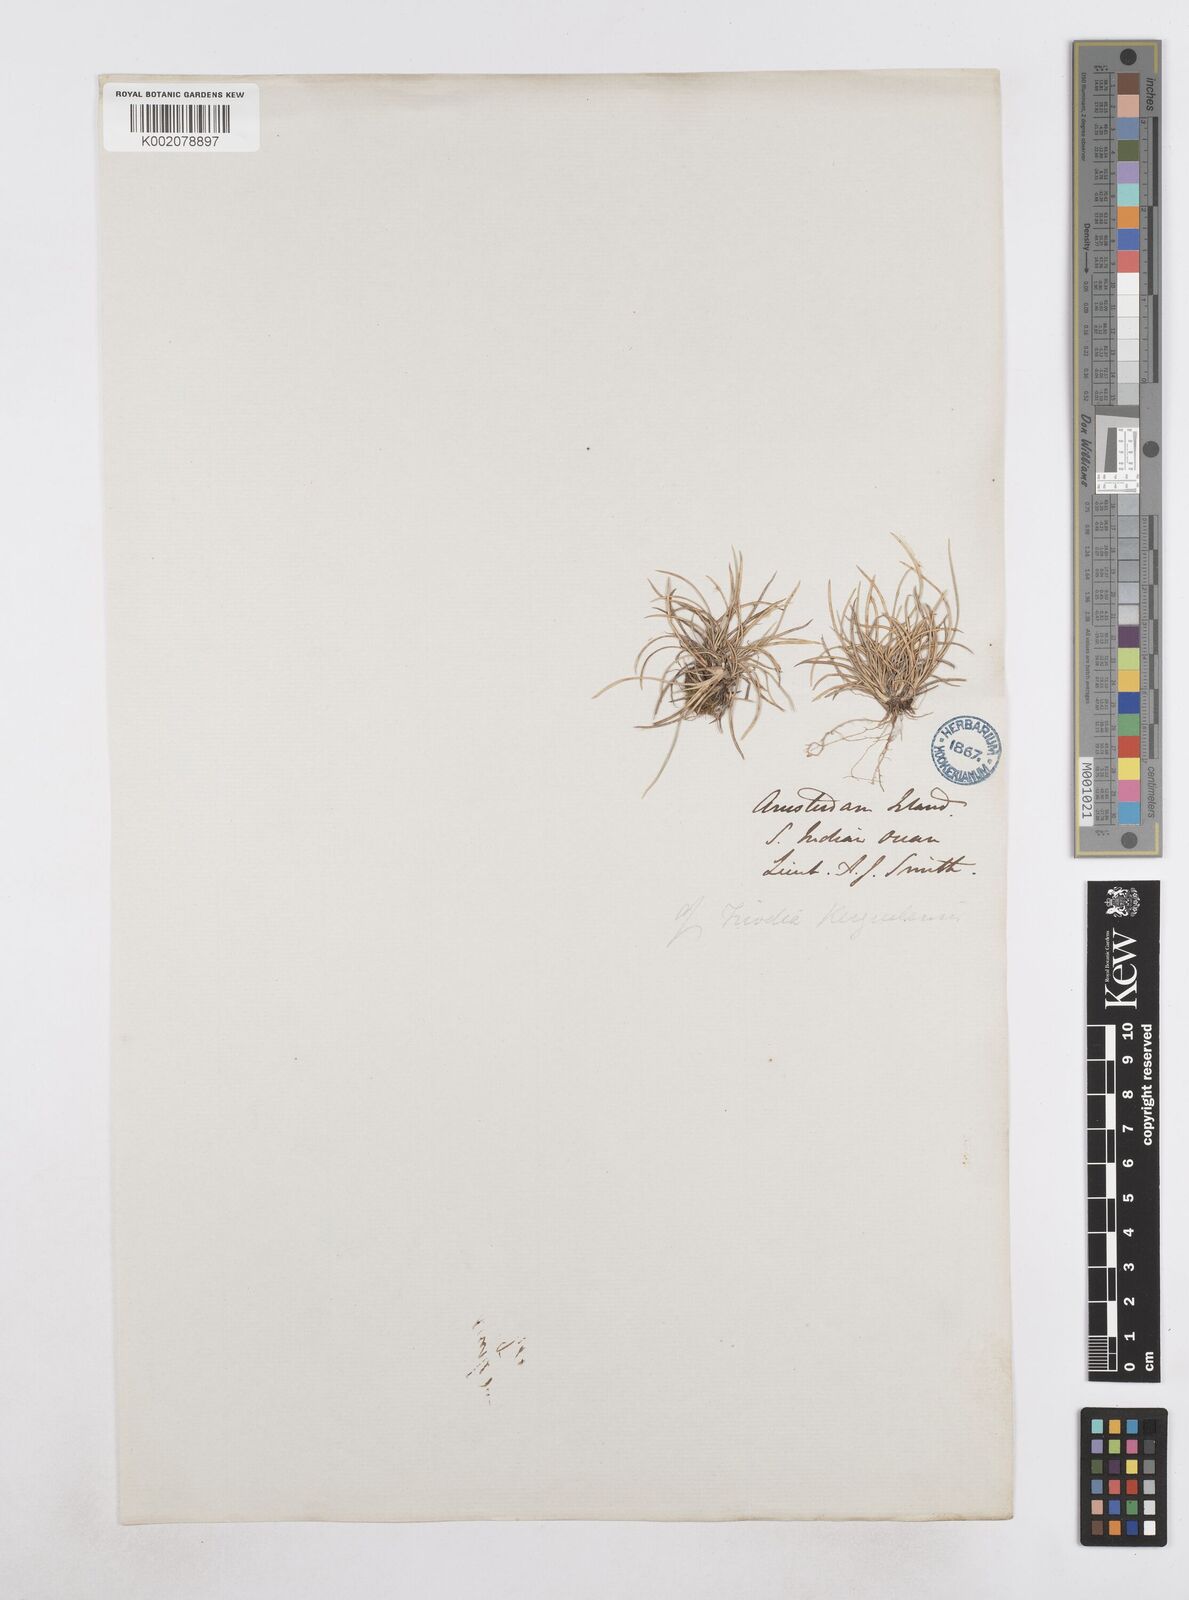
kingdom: Plantae
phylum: Tracheophyta
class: Liliopsida
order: Poales
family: Poaceae
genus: Poa
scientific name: Poa
